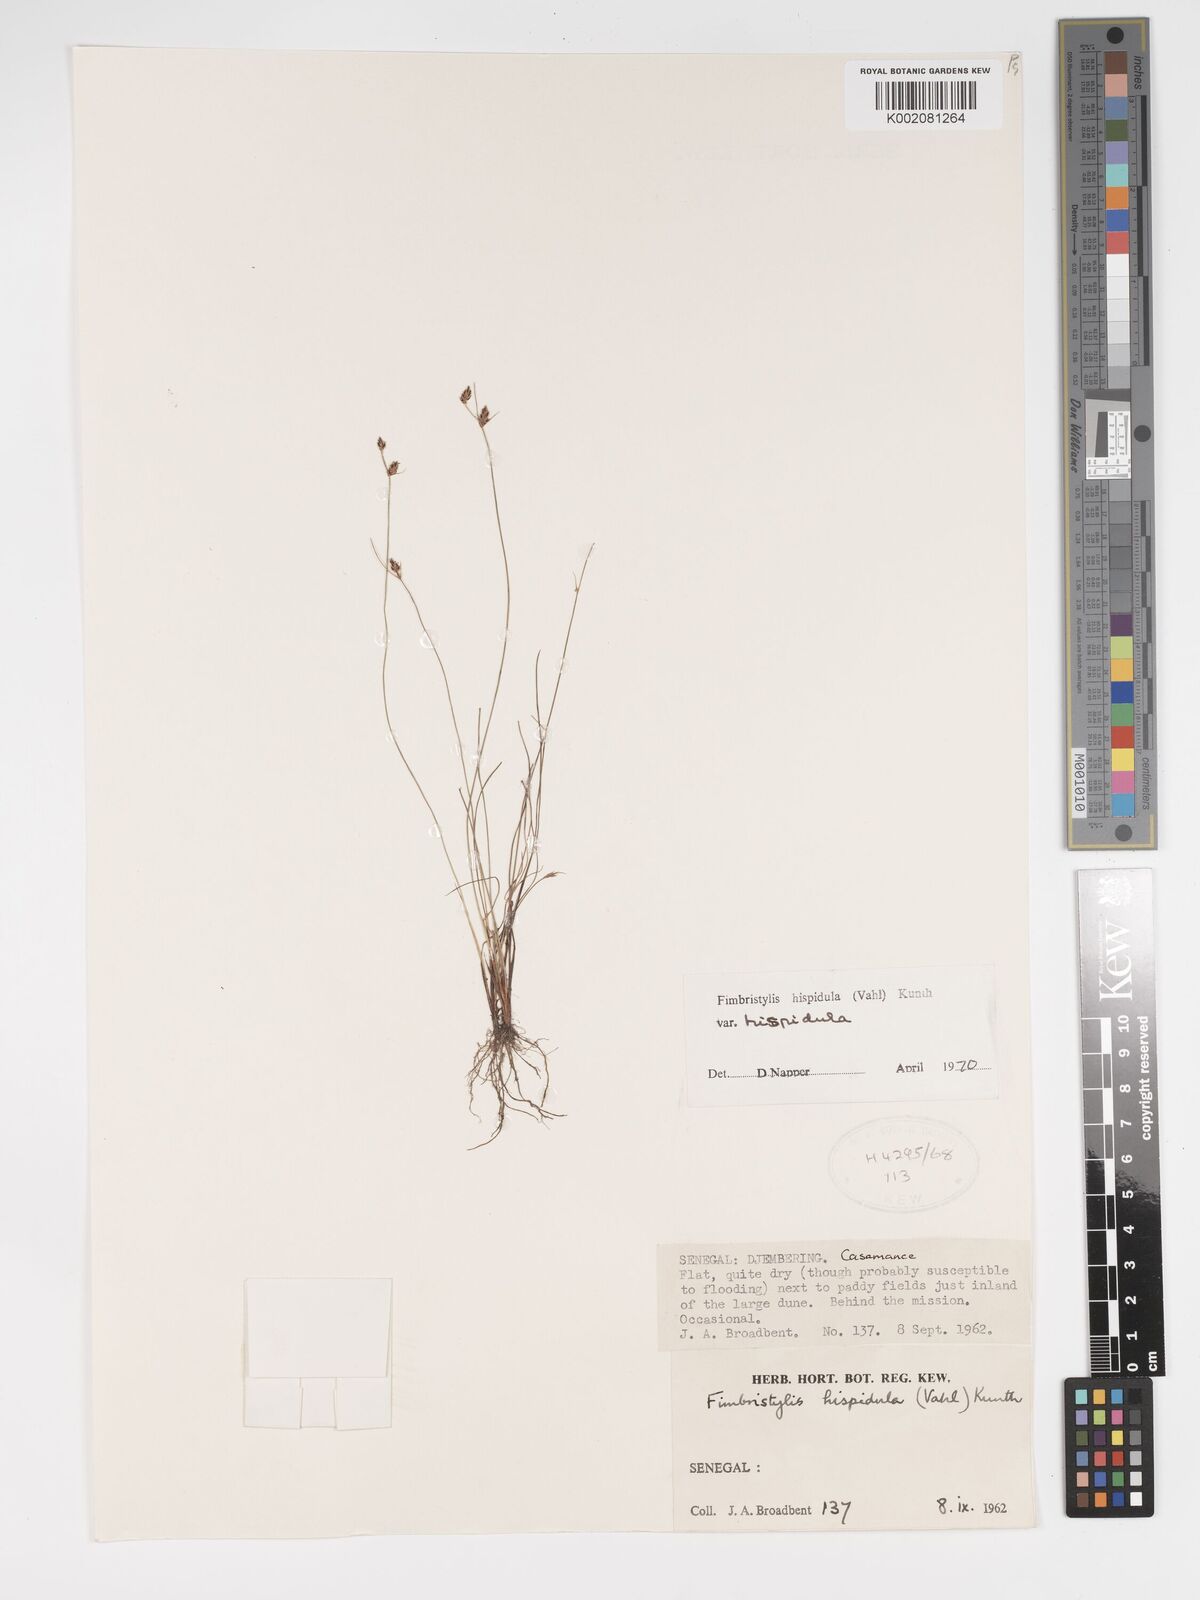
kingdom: Plantae
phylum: Tracheophyta
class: Liliopsida
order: Poales
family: Cyperaceae
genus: Bulbostylis
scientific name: Bulbostylis hispidula
